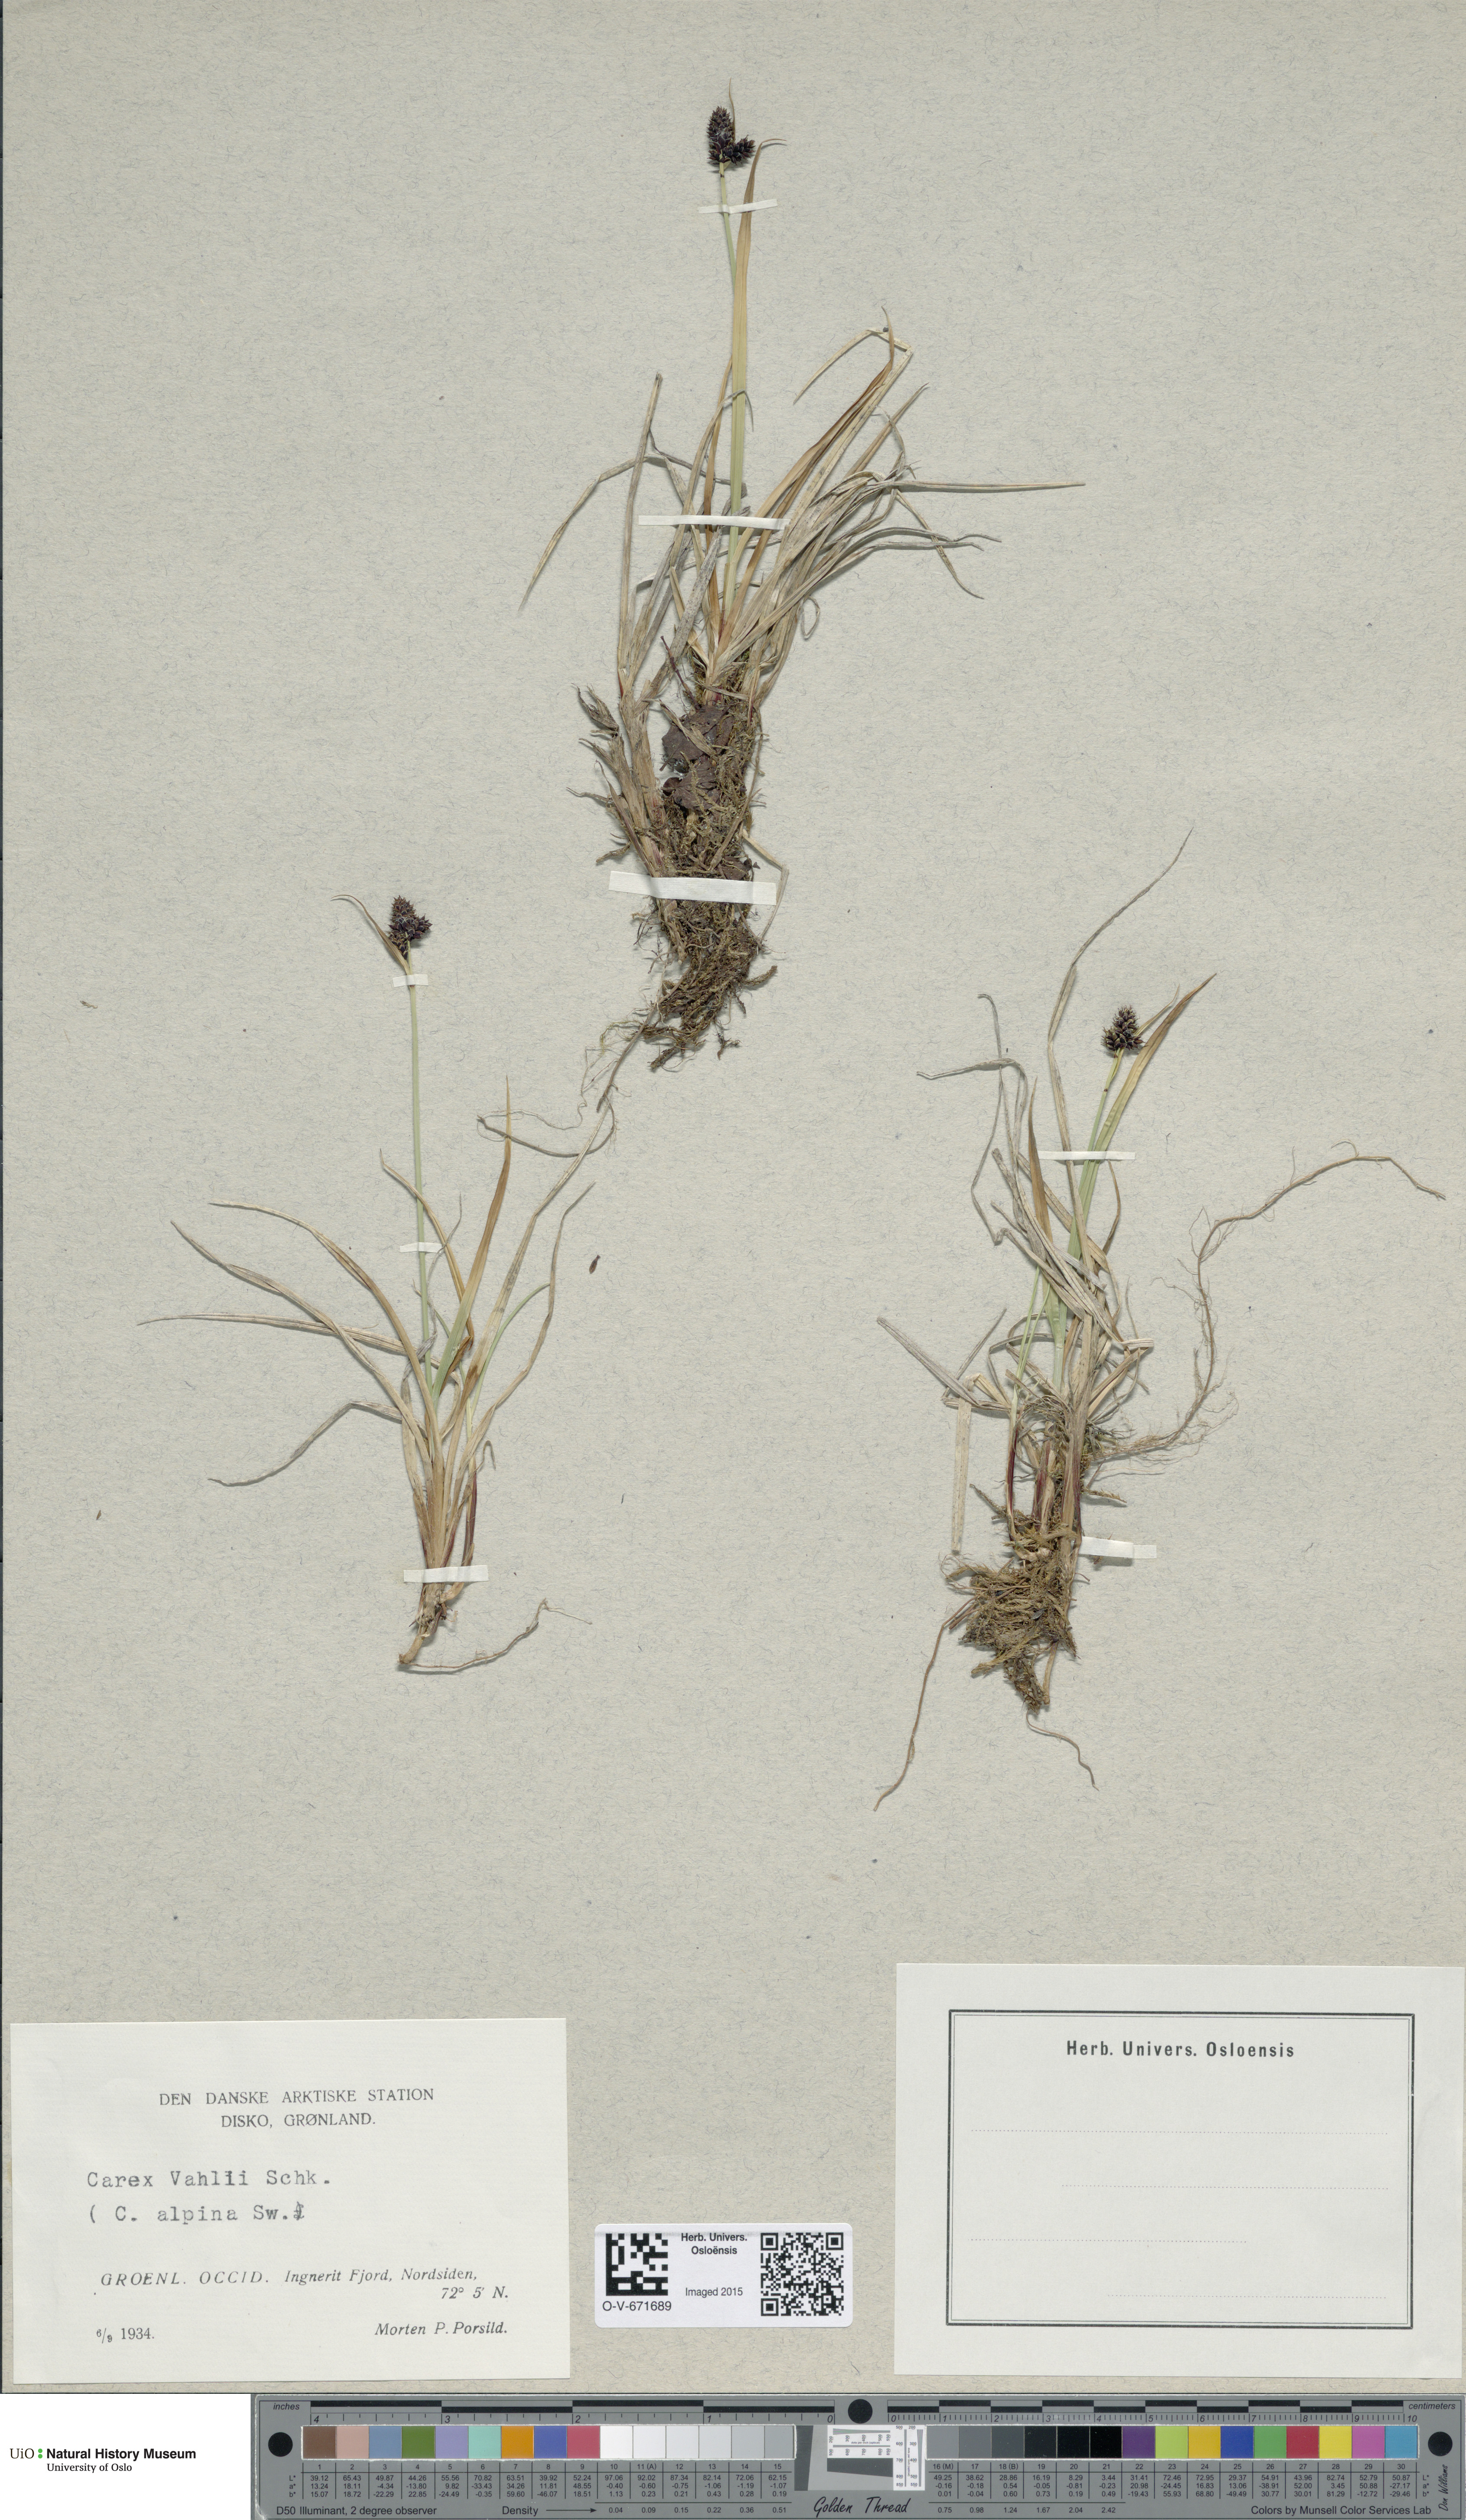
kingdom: Plantae
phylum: Tracheophyta
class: Liliopsida
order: Poales
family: Cyperaceae
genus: Carex
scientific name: Carex norvegica
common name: Close-headed alpine-sedge
